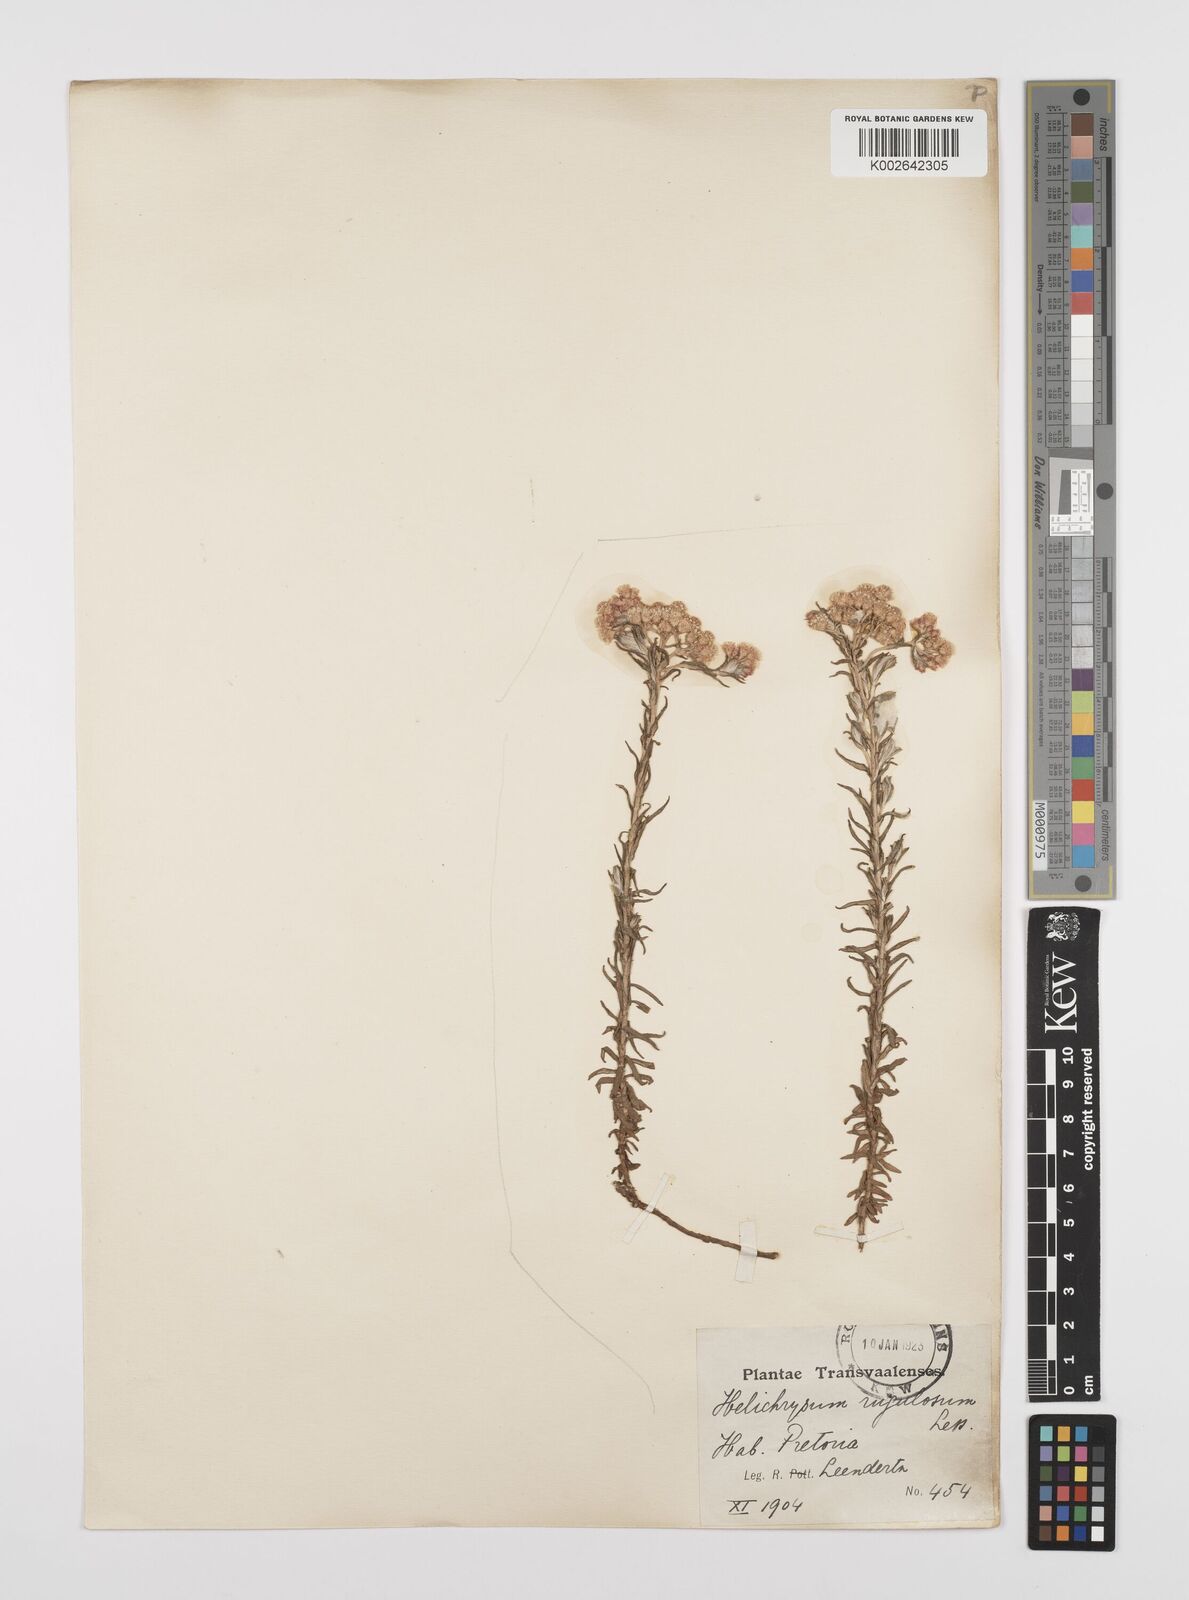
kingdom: Plantae
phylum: Tracheophyta
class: Magnoliopsida
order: Asterales
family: Asteraceae
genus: Helichrysum
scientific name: Helichrysum rugulosum
